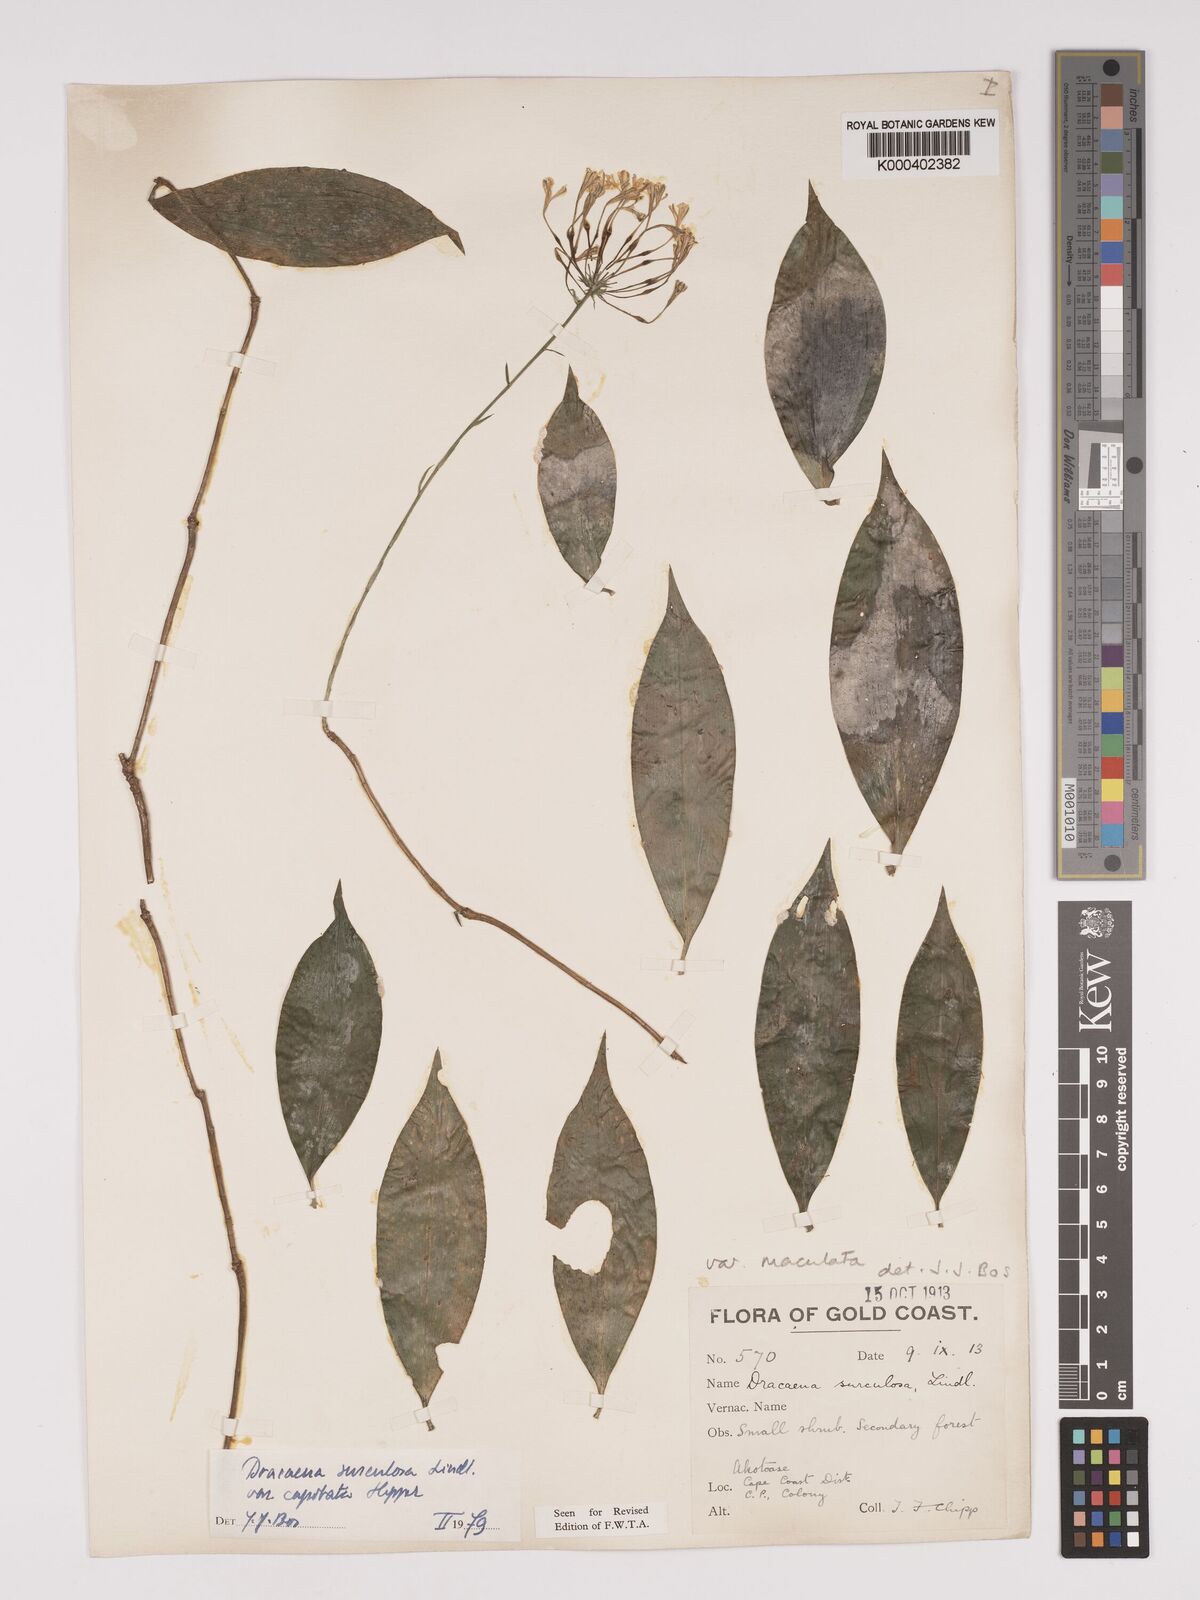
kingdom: Plantae
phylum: Tracheophyta
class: Liliopsida
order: Asparagales
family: Asparagaceae
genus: Dracaena
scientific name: Dracaena surculosa
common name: Spotted dracaena
